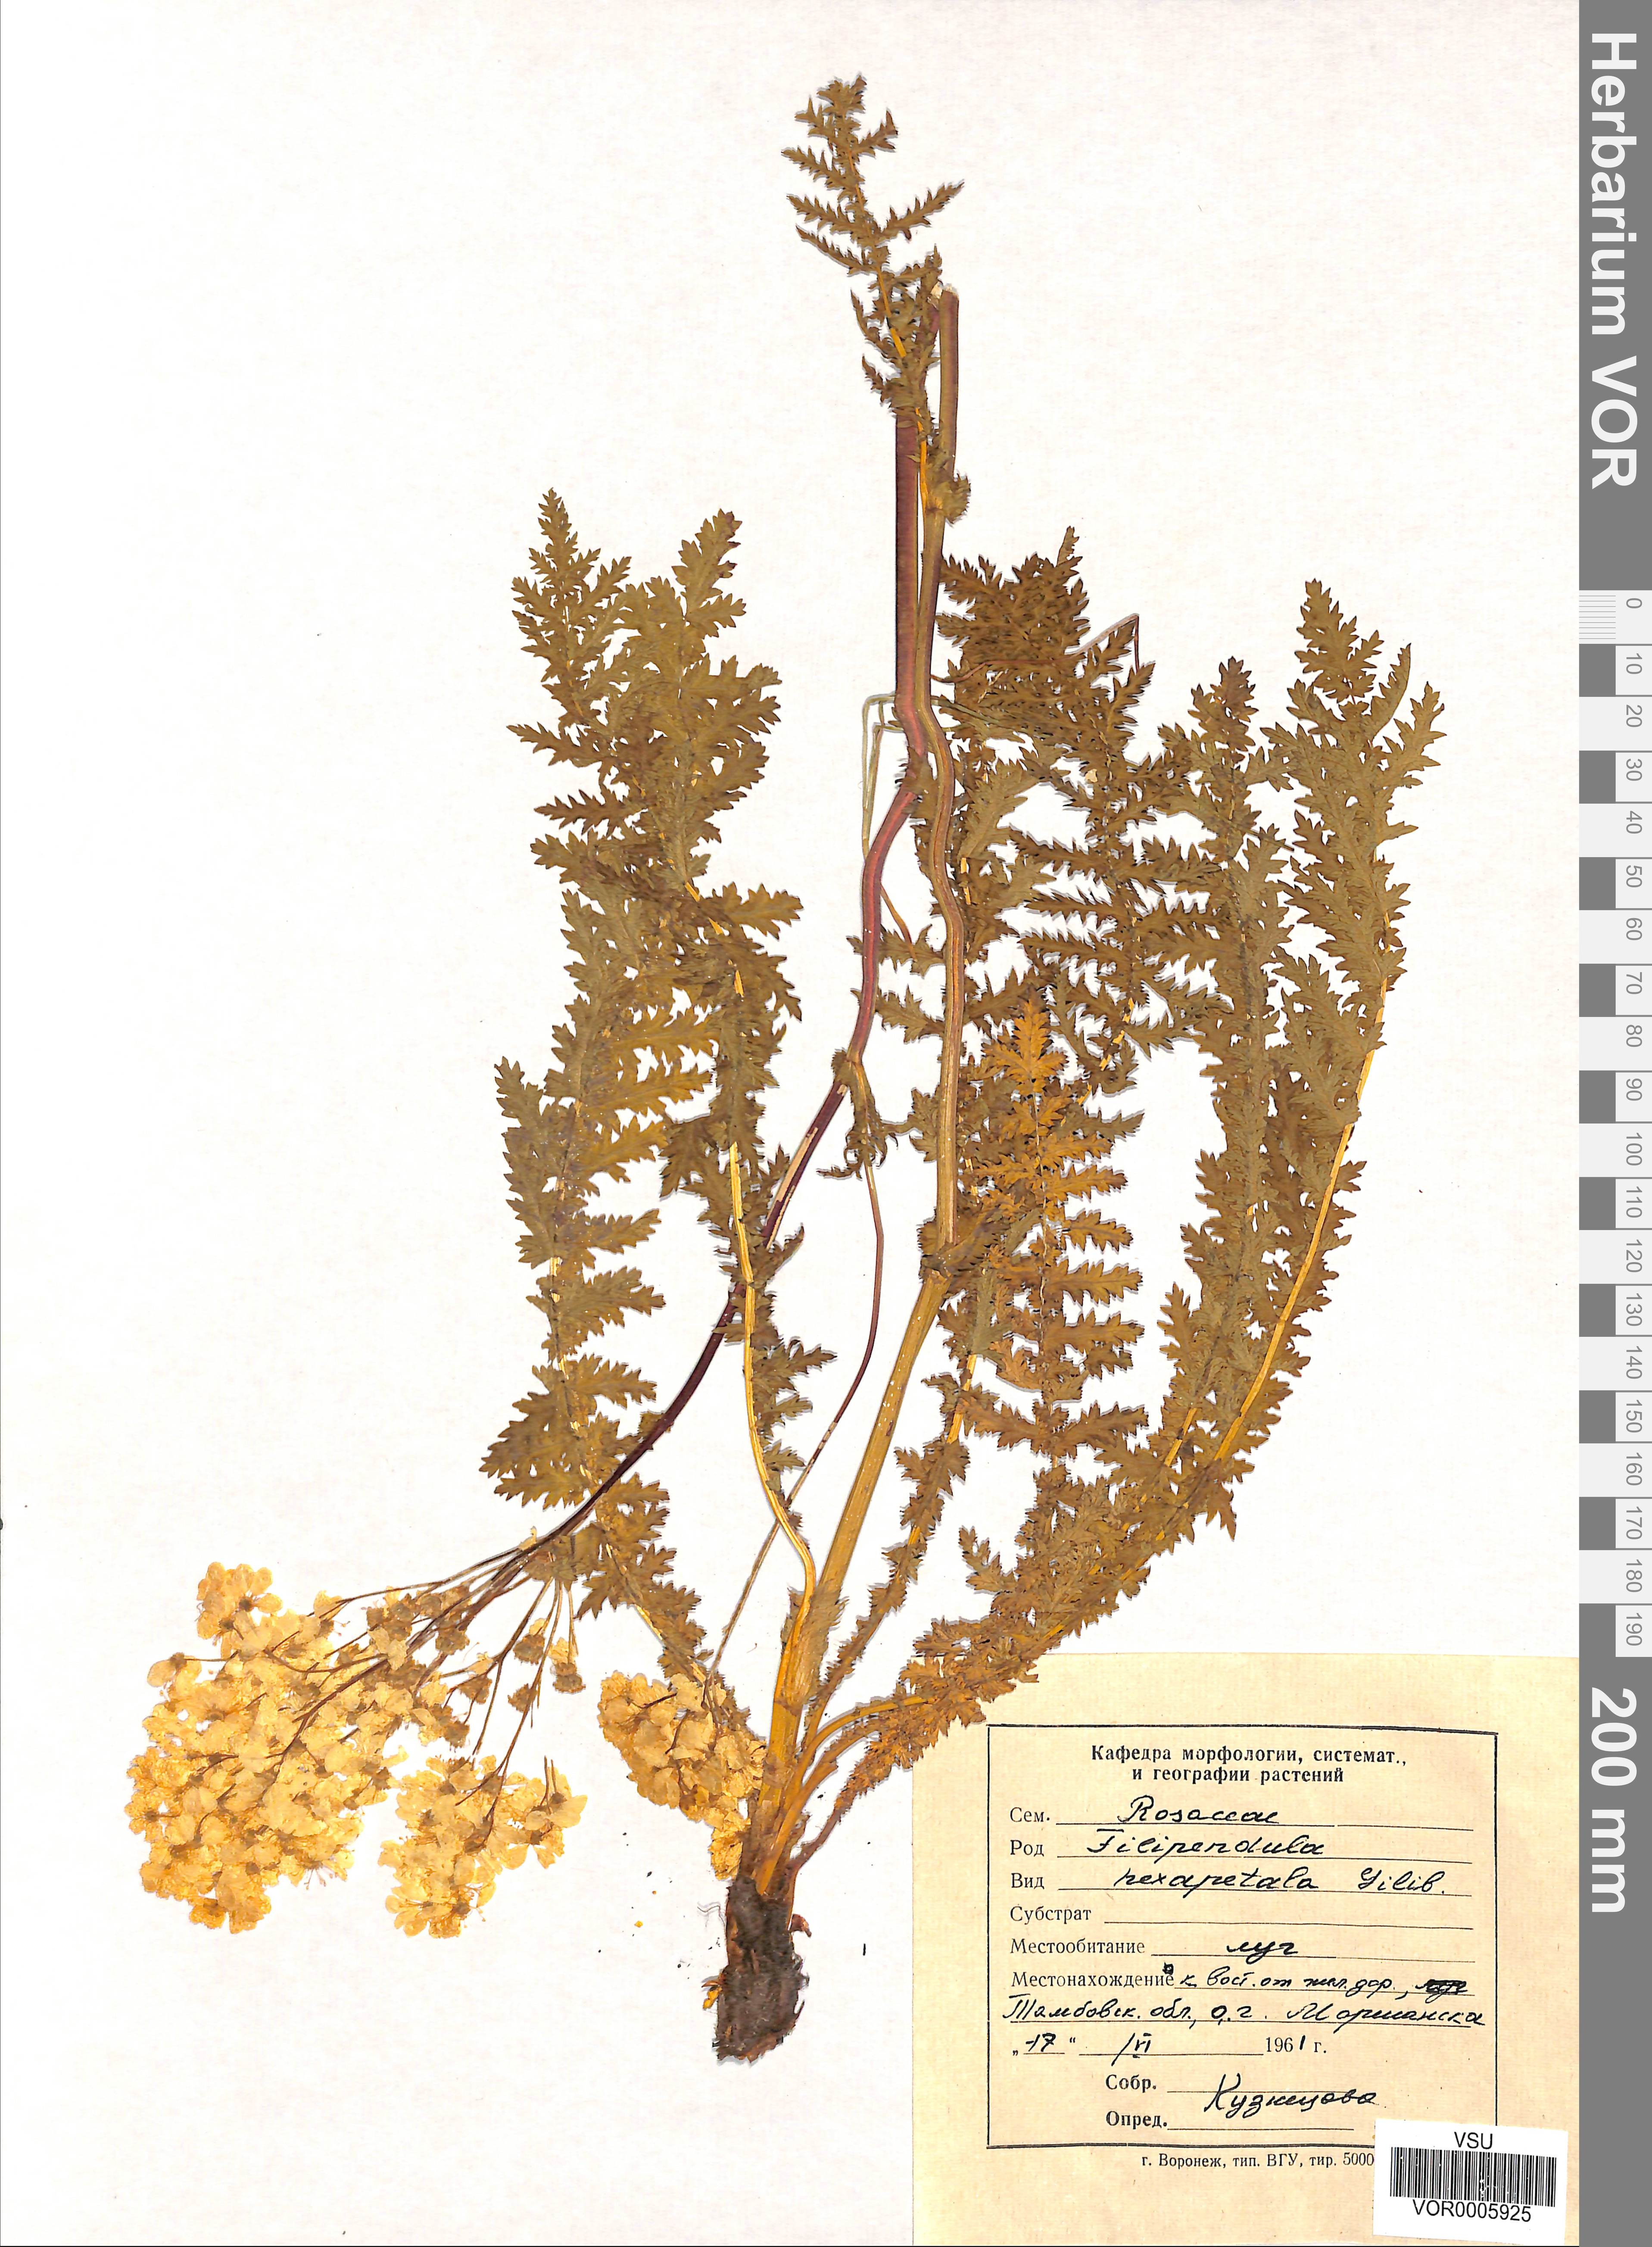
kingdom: Plantae
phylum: Tracheophyta
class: Magnoliopsida
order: Rosales
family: Rosaceae
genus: Filipendula
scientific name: Filipendula vulgaris
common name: Dropwort
